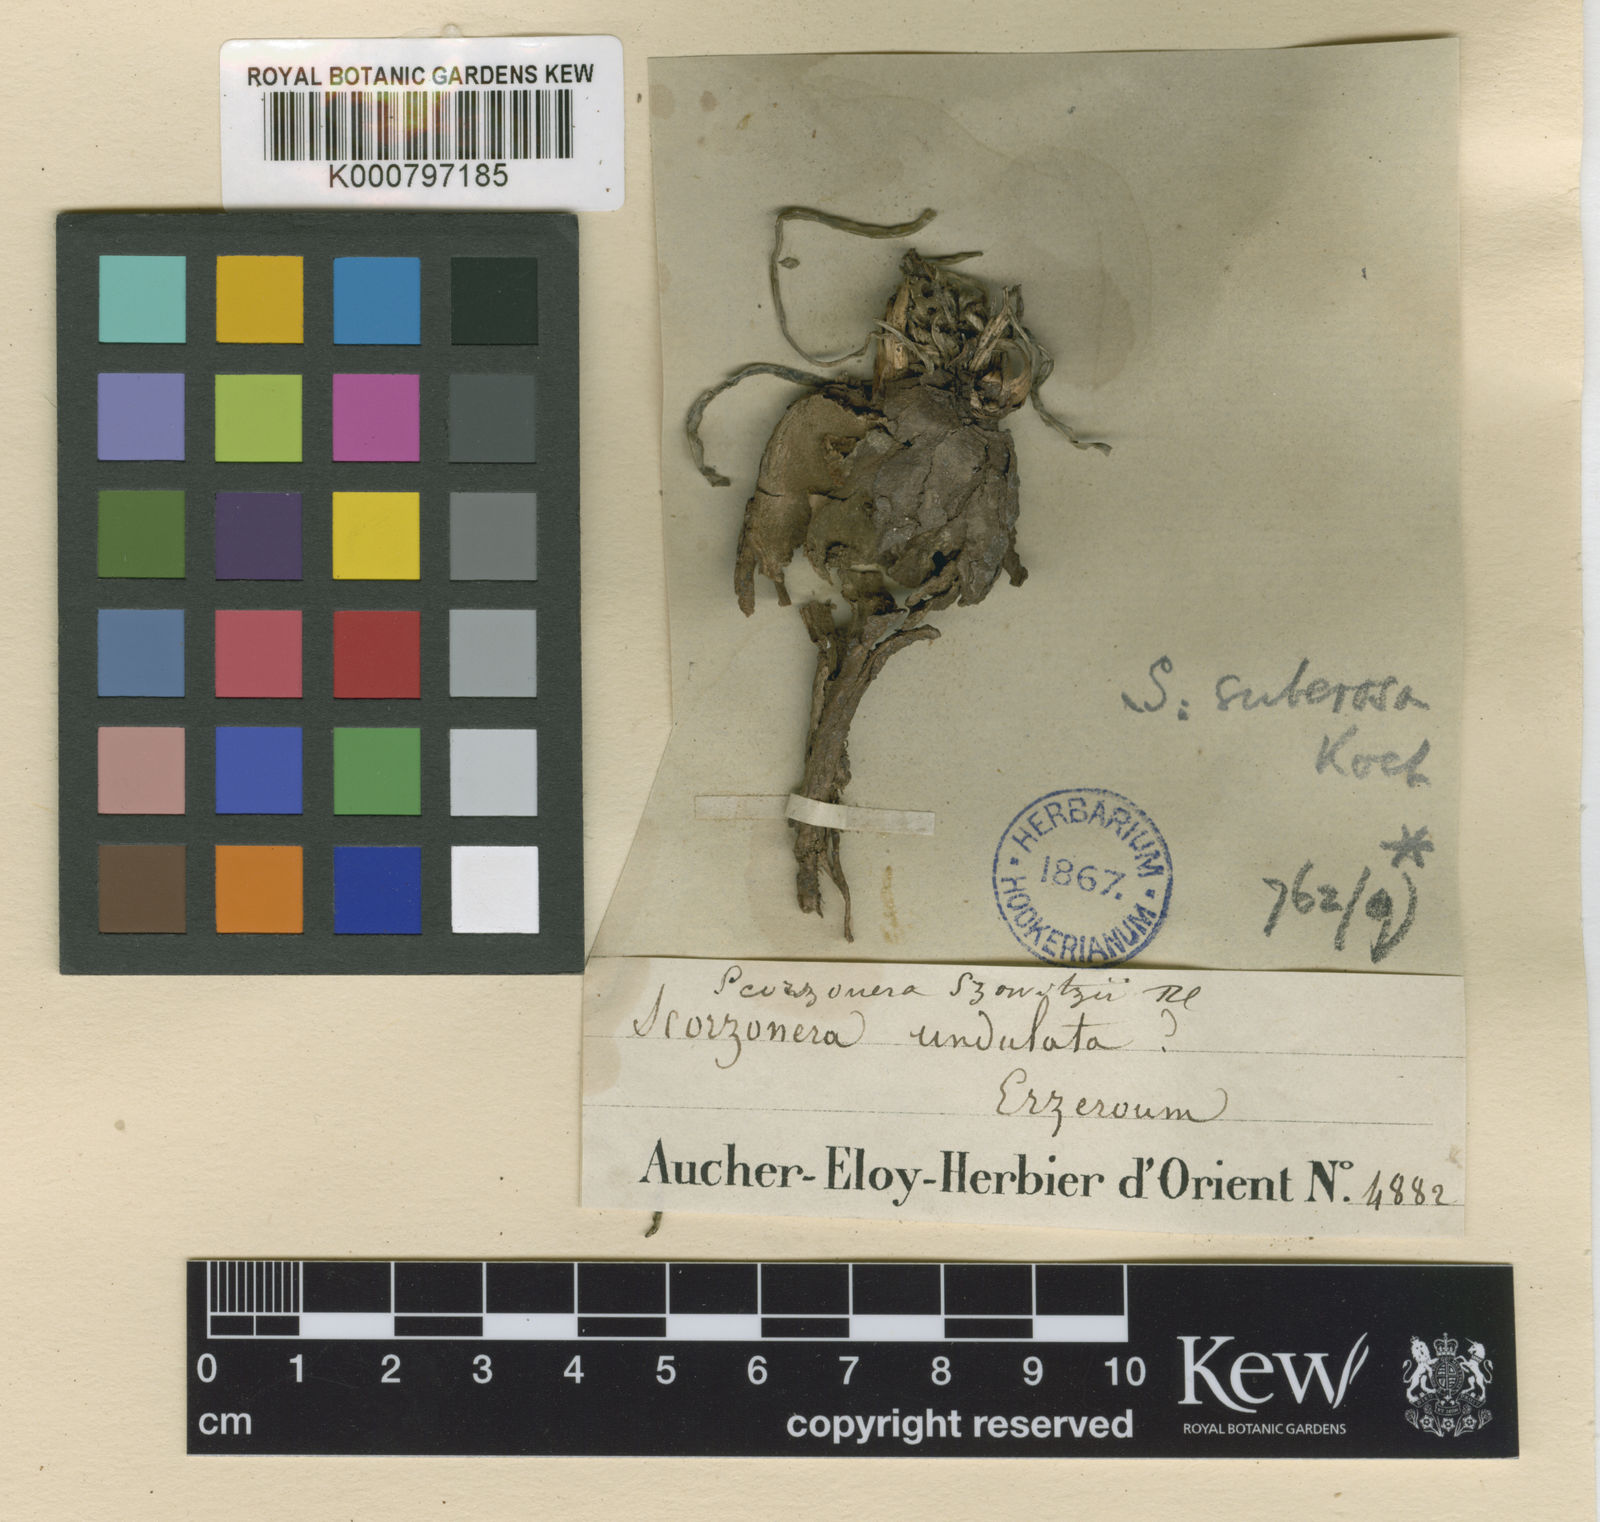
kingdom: Plantae
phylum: Tracheophyta
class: Magnoliopsida
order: Asterales
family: Asteraceae
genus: Pseudopodospermum
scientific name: Pseudopodospermum suberosum
